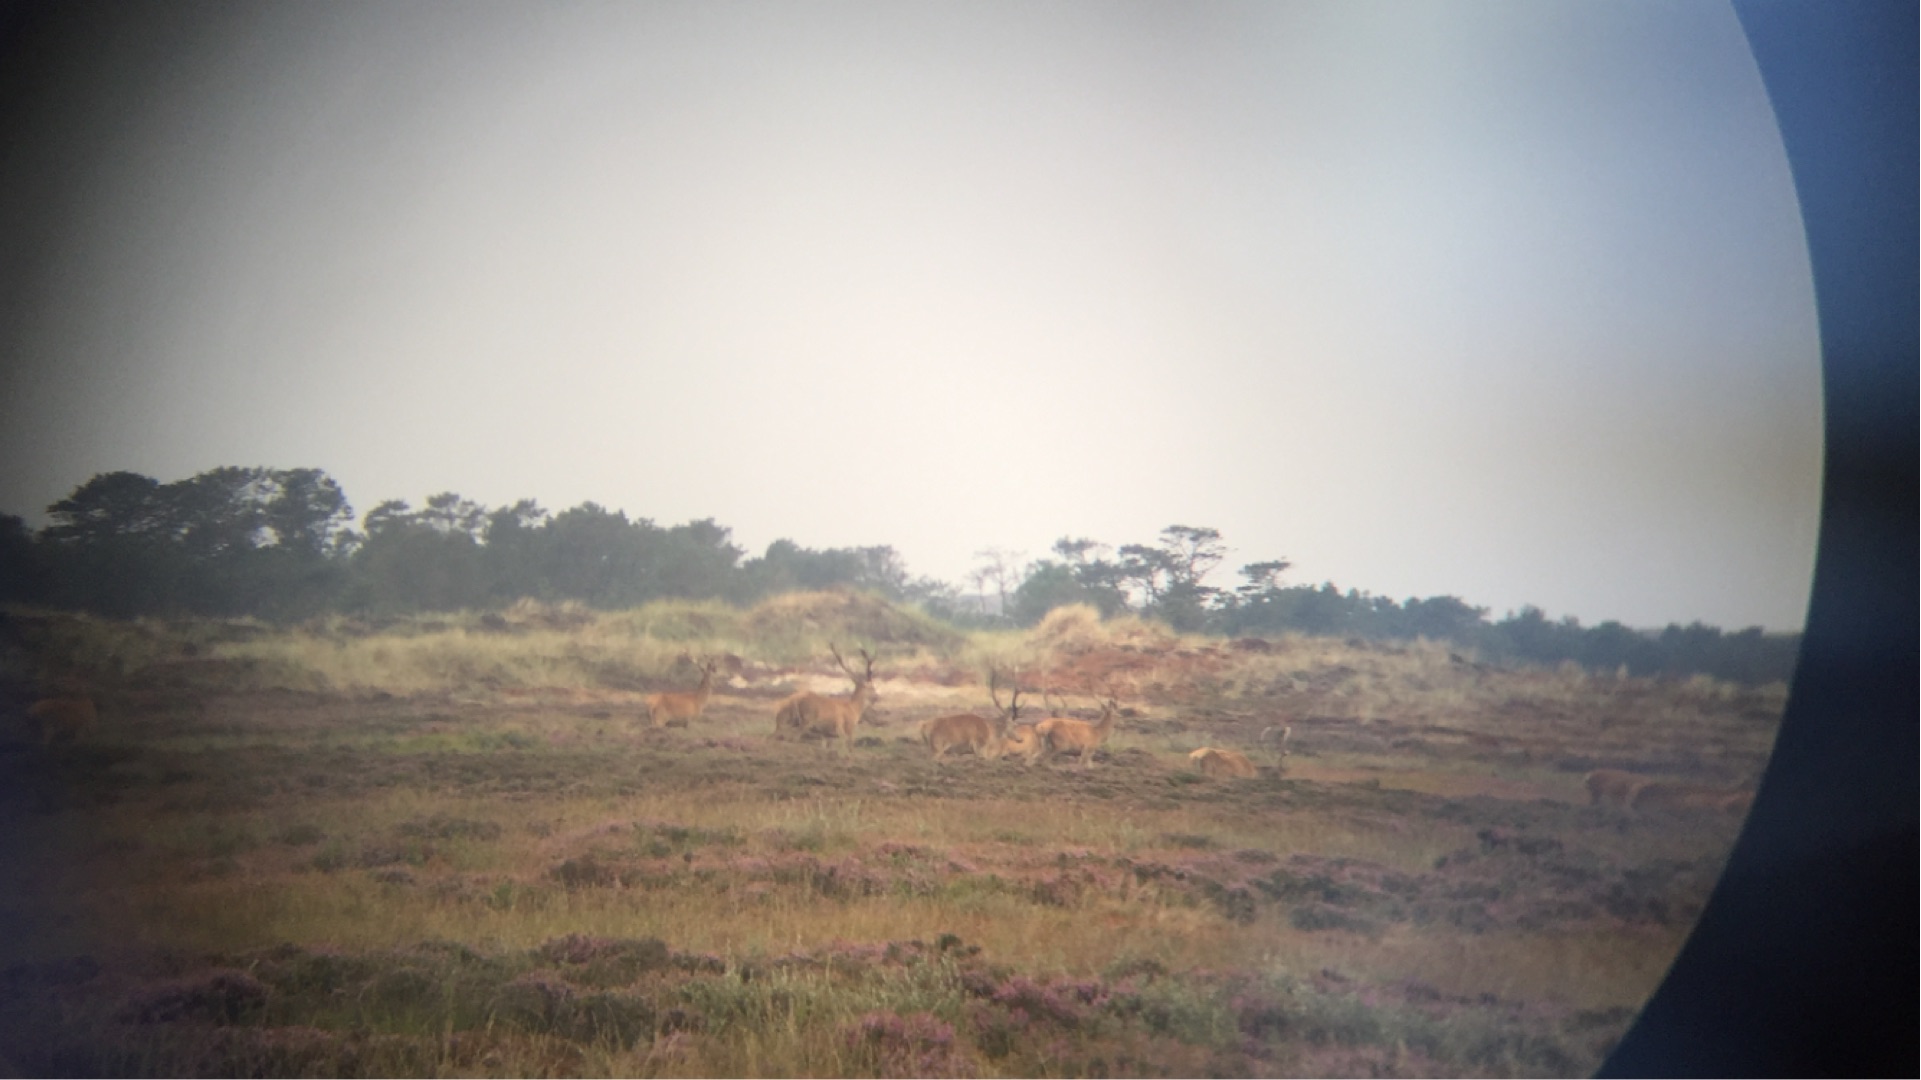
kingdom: Animalia
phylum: Chordata
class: Mammalia
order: Artiodactyla
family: Cervidae
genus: Cervus
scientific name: Cervus elaphus
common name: Krondyr
